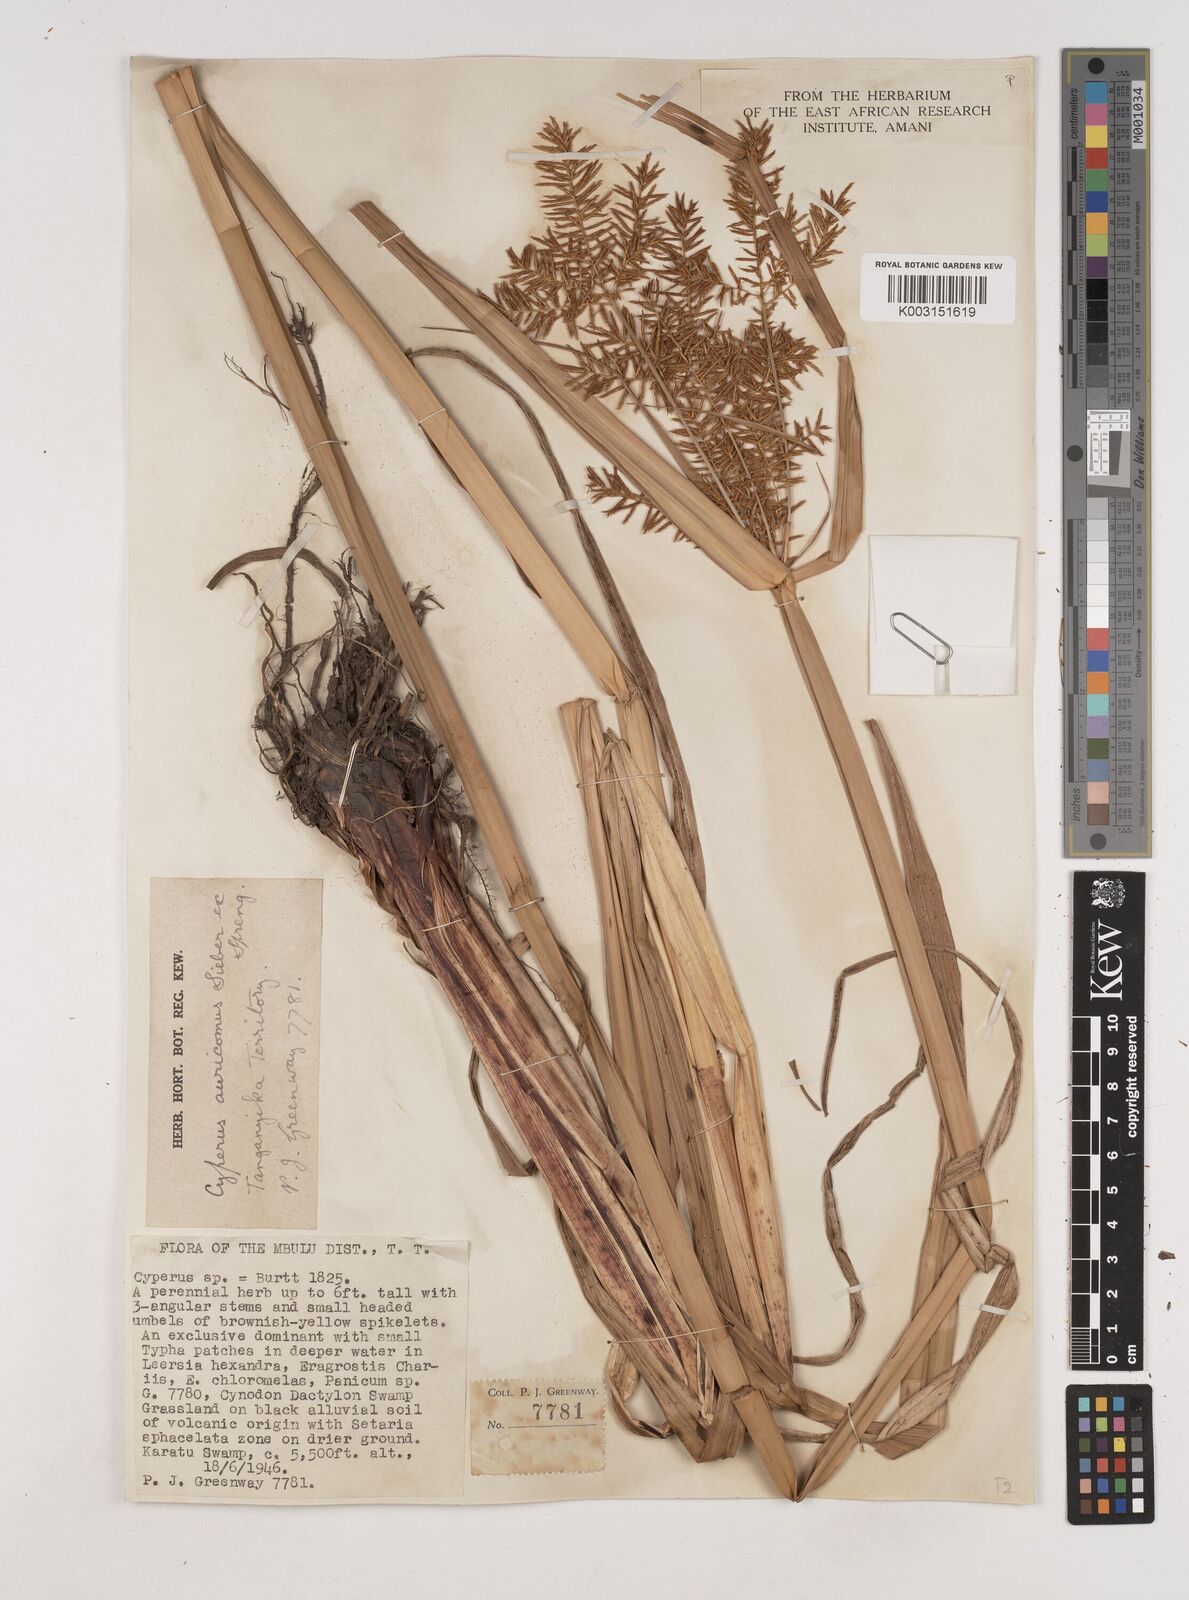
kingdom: Plantae
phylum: Tracheophyta
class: Liliopsida
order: Poales
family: Cyperaceae
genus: Cyperus
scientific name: Cyperus digitatus
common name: Finger flatsedge
